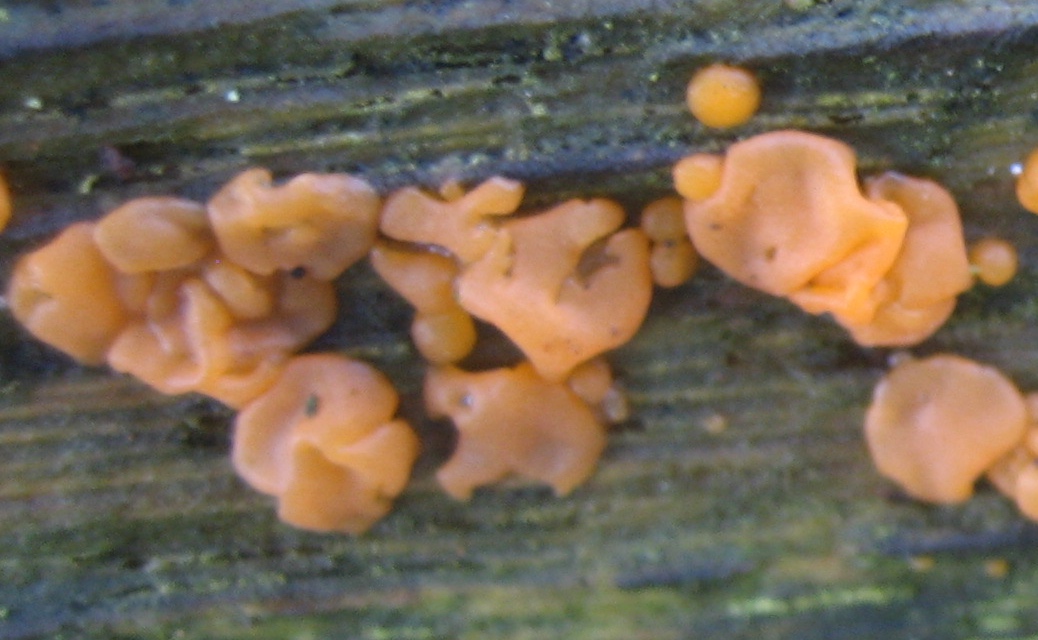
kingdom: Fungi
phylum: Basidiomycota
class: Dacrymycetes
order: Dacrymycetales
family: Dacrymycetaceae
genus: Dacrymyces
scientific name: Dacrymyces
